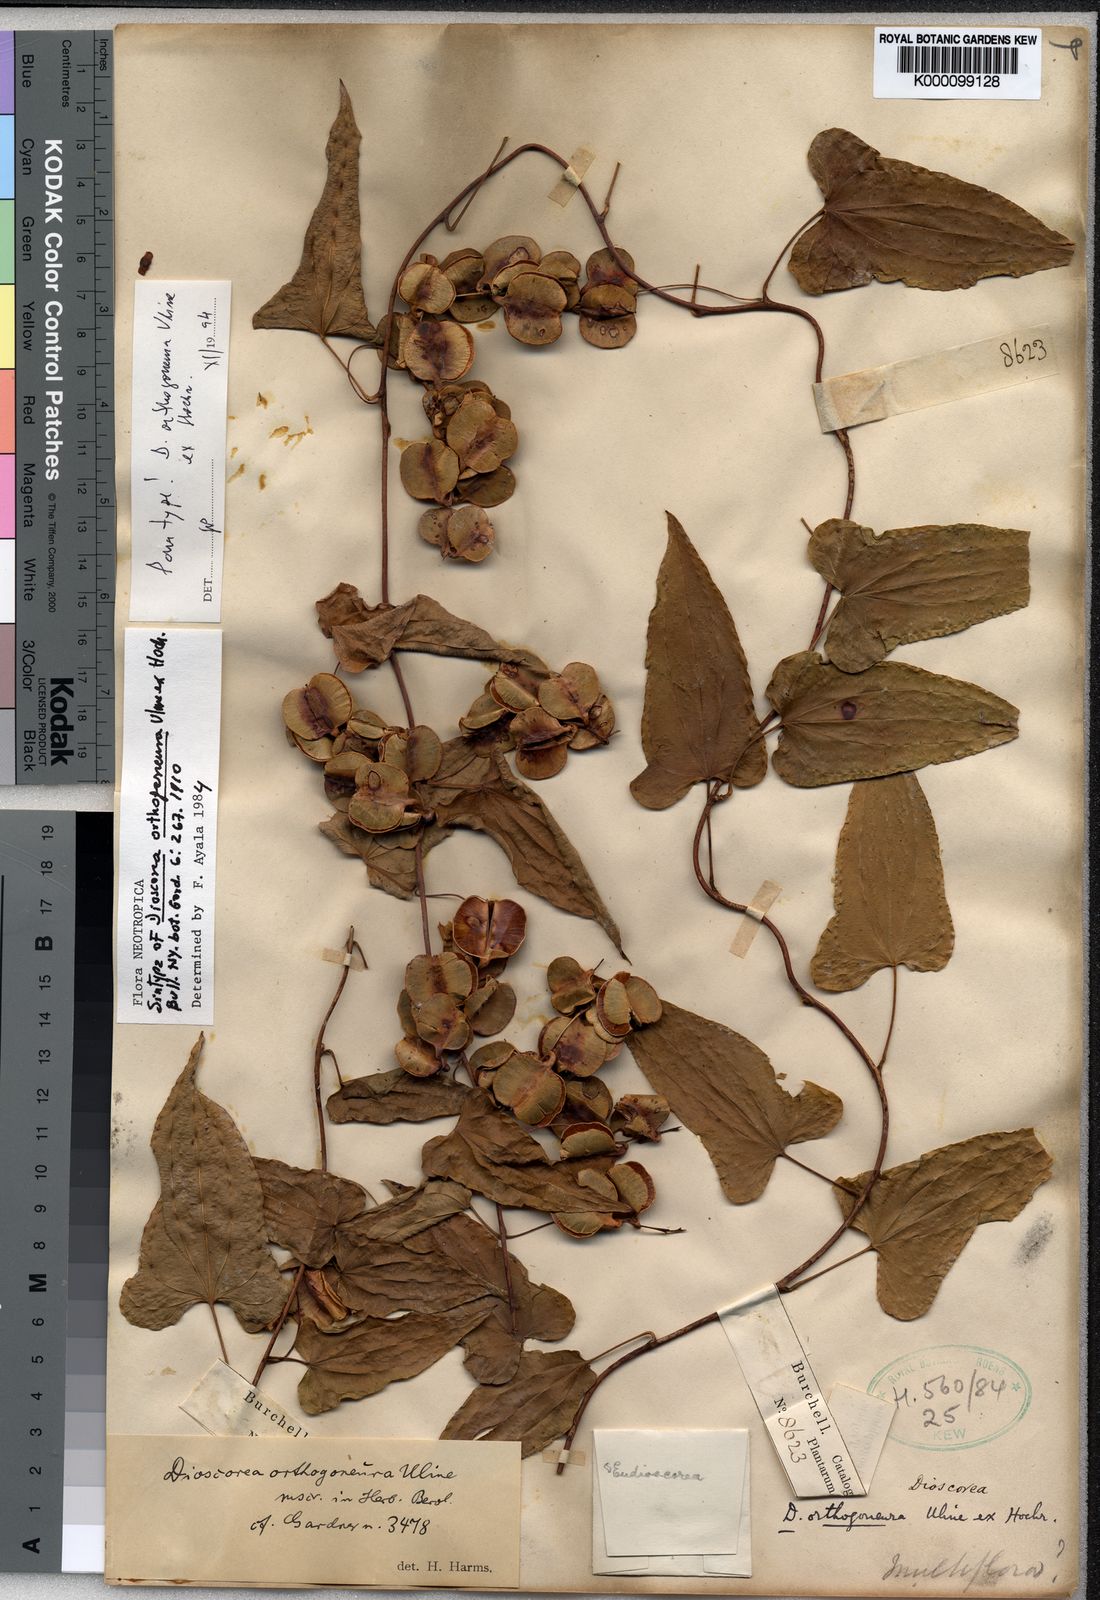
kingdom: Plantae
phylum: Tracheophyta
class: Liliopsida
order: Dioscoreales
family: Dioscoreaceae
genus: Dioscorea
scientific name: Dioscorea orthogoneura
